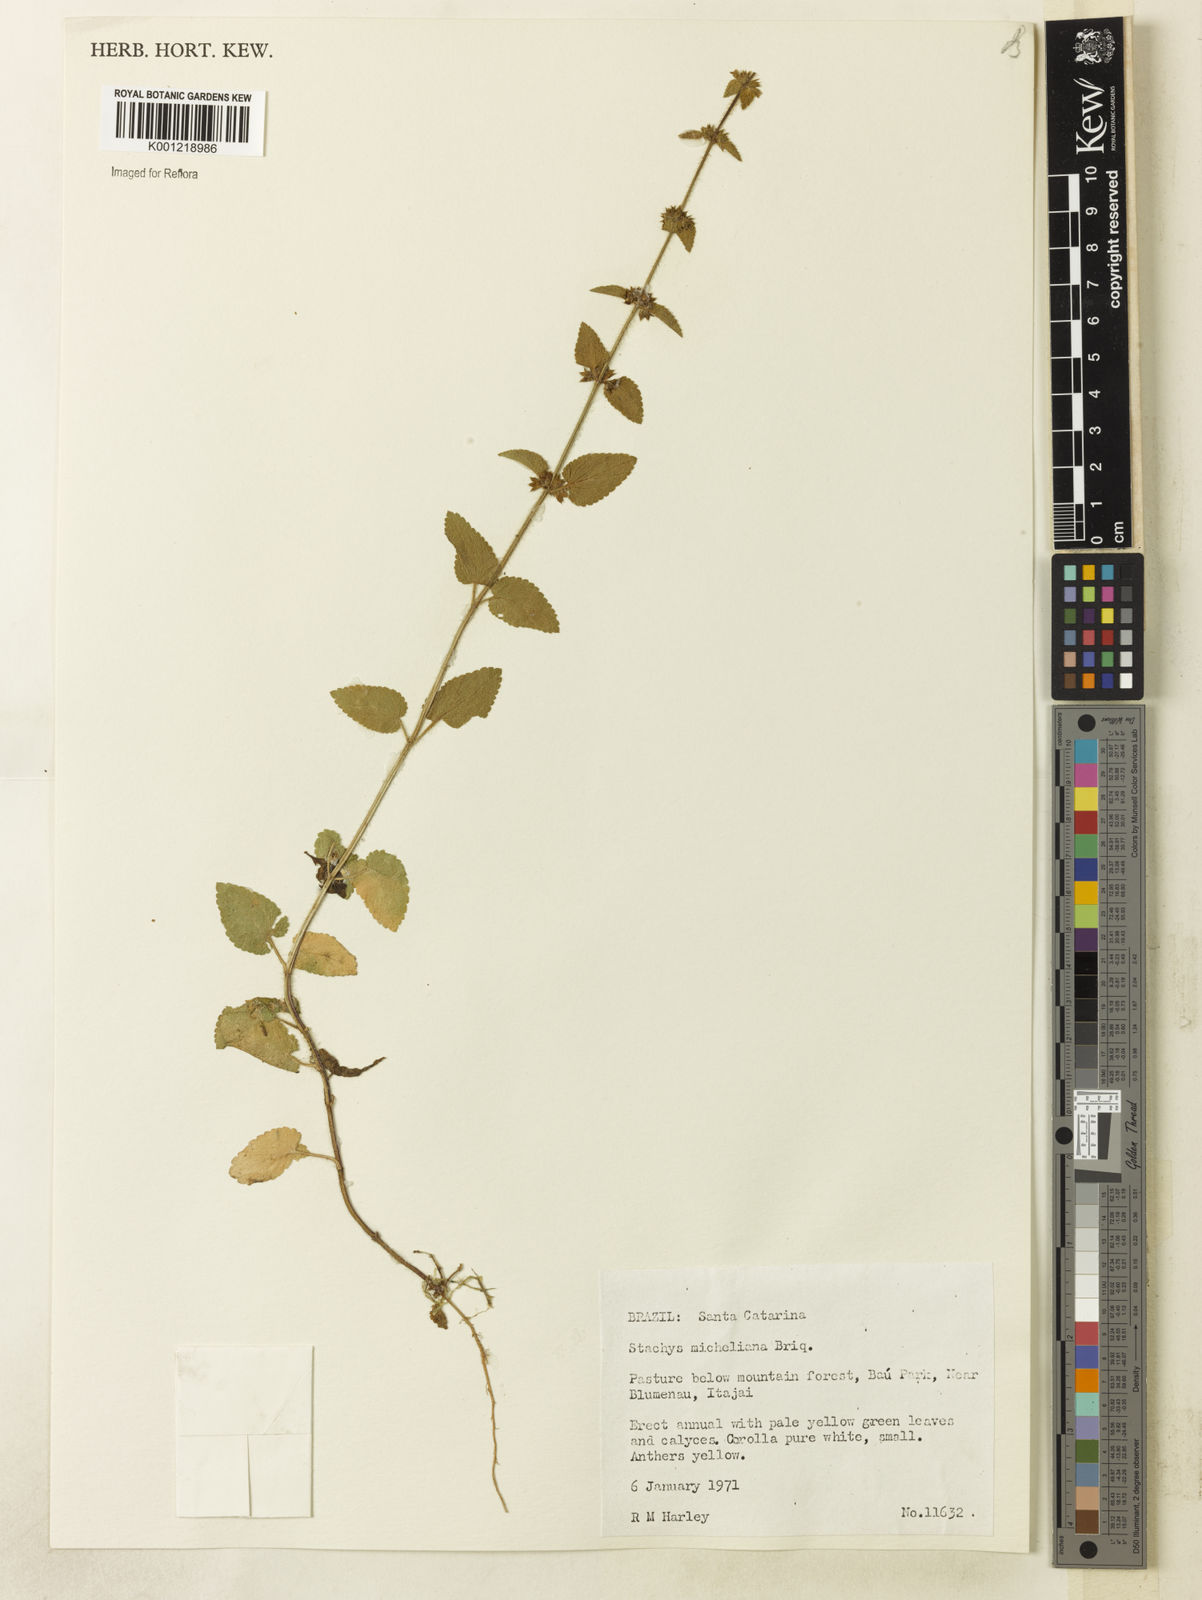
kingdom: Plantae
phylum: Tracheophyta
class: Magnoliopsida
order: Lamiales
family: Lamiaceae
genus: Stachys
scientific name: Stachys
